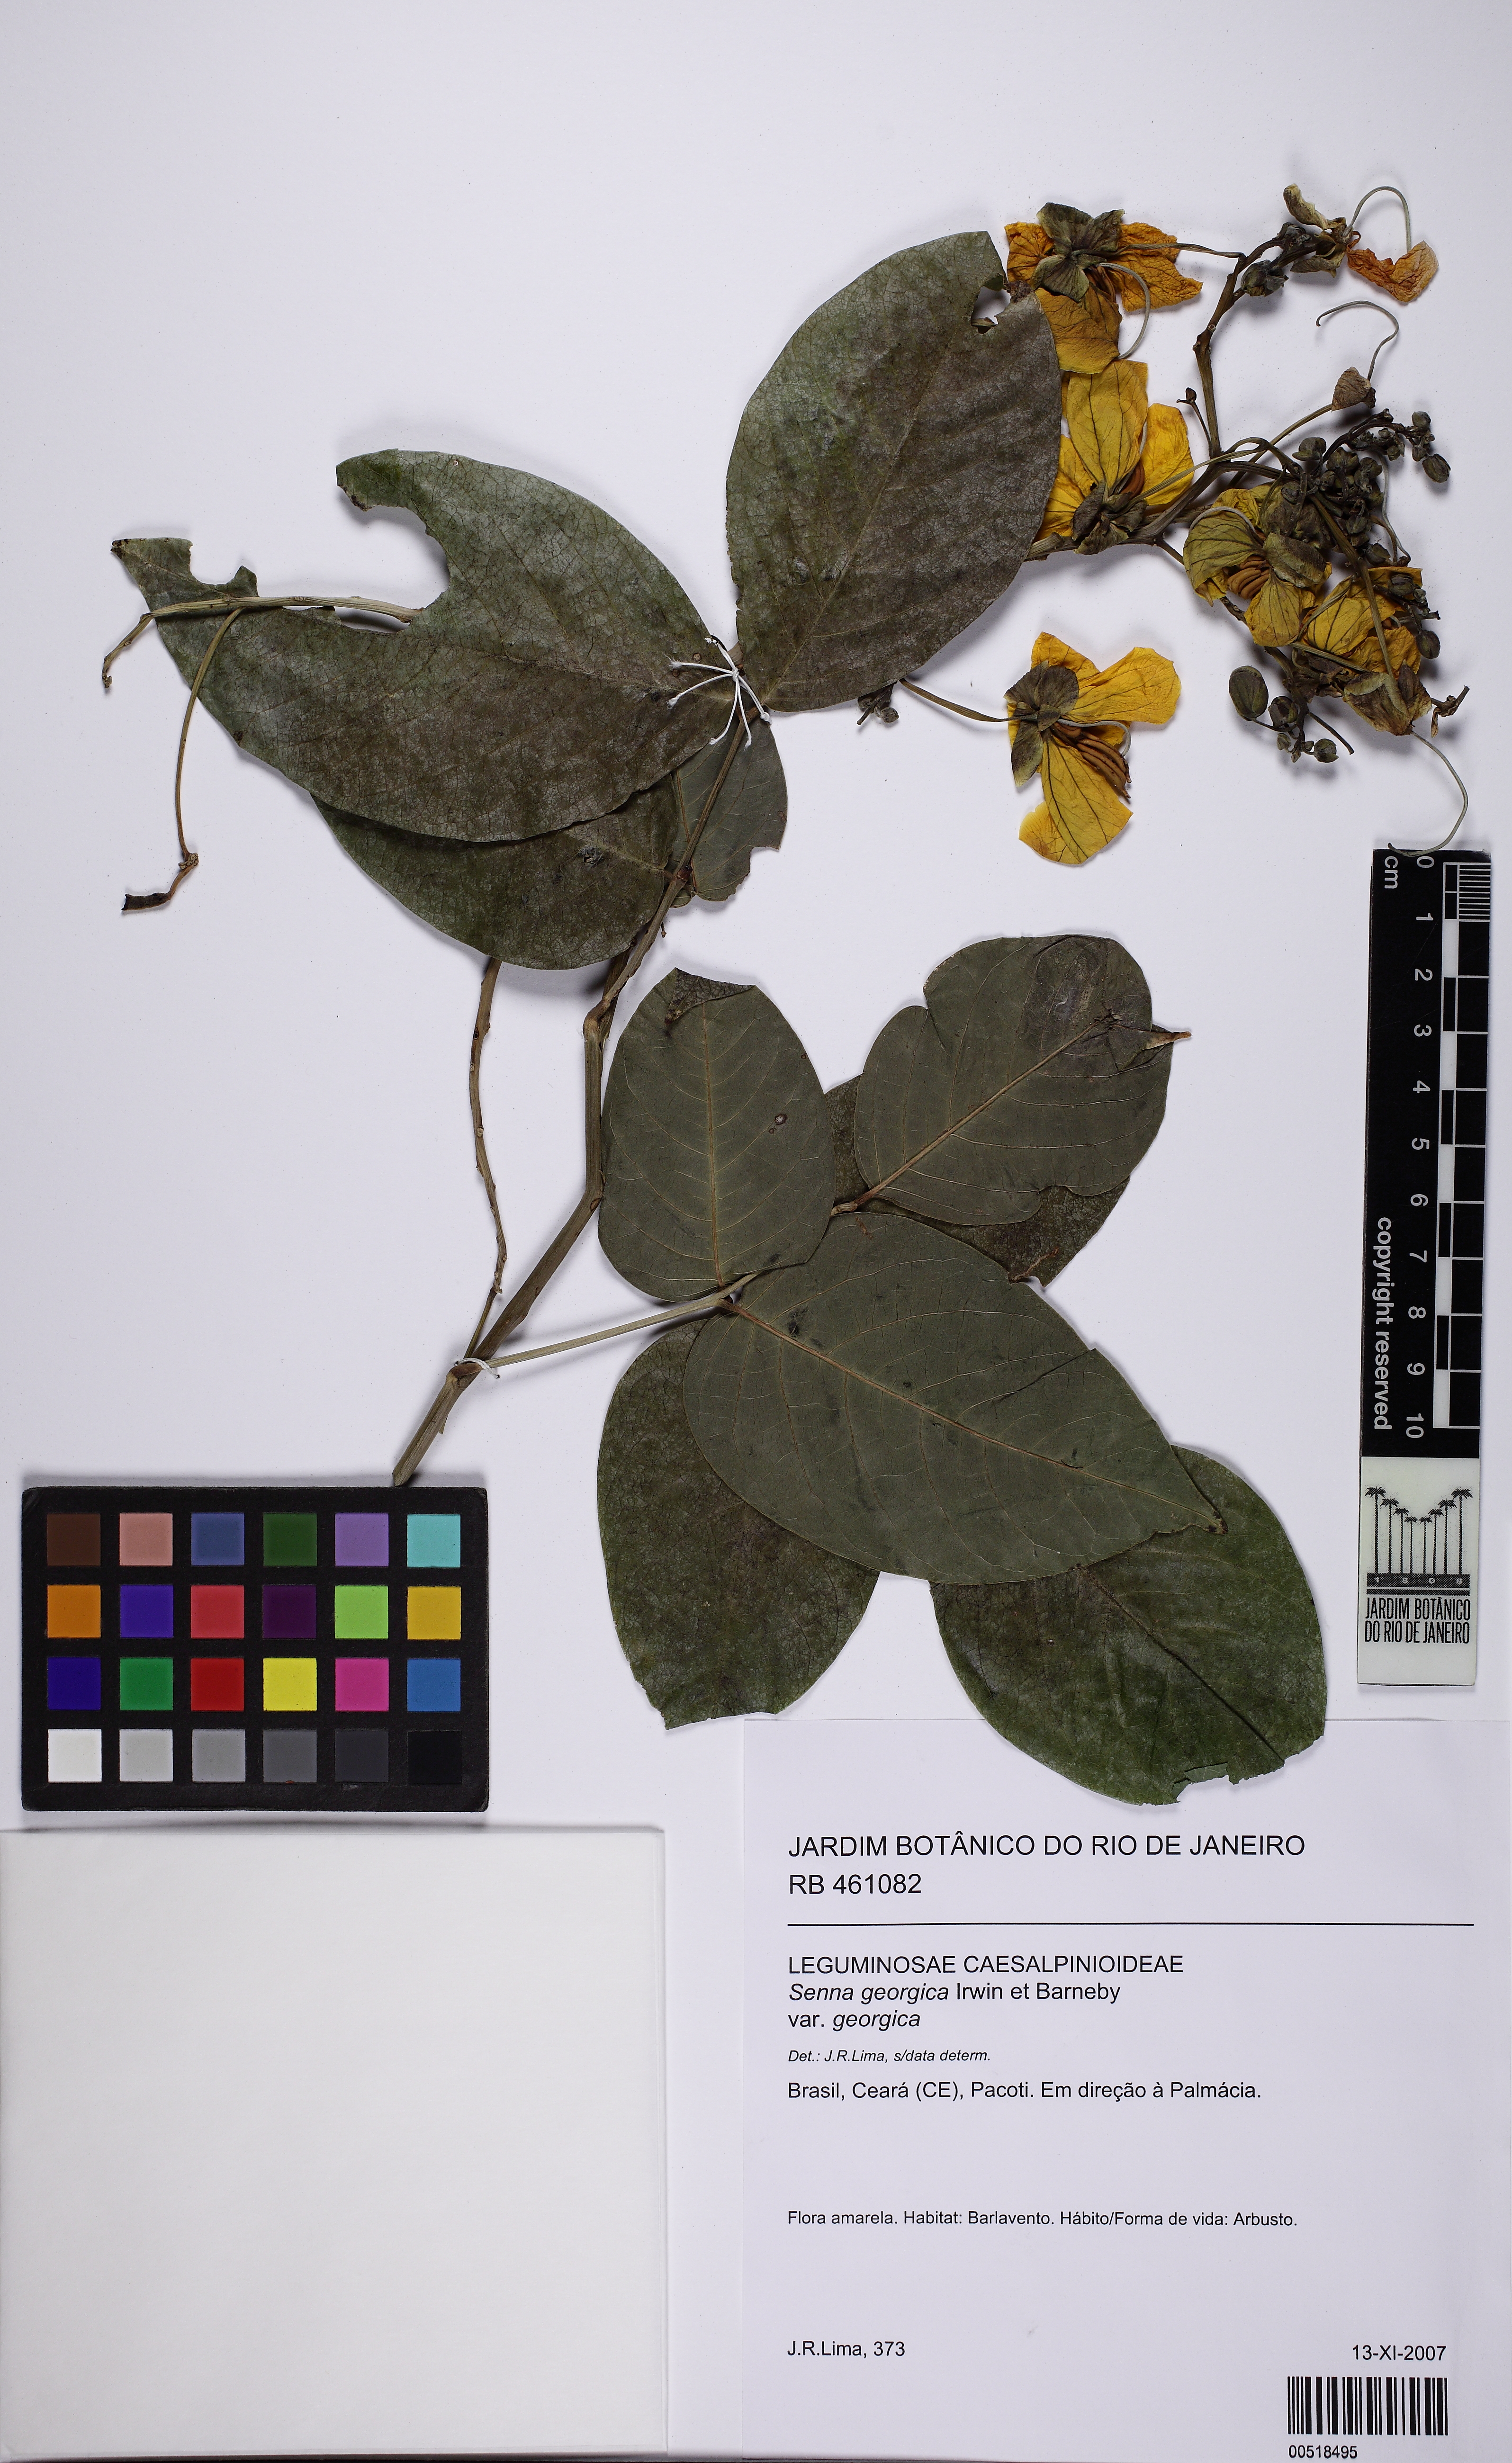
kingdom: Plantae
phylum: Tracheophyta
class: Magnoliopsida
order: Fabales
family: Fabaceae
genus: Senna
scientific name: Senna georgica
